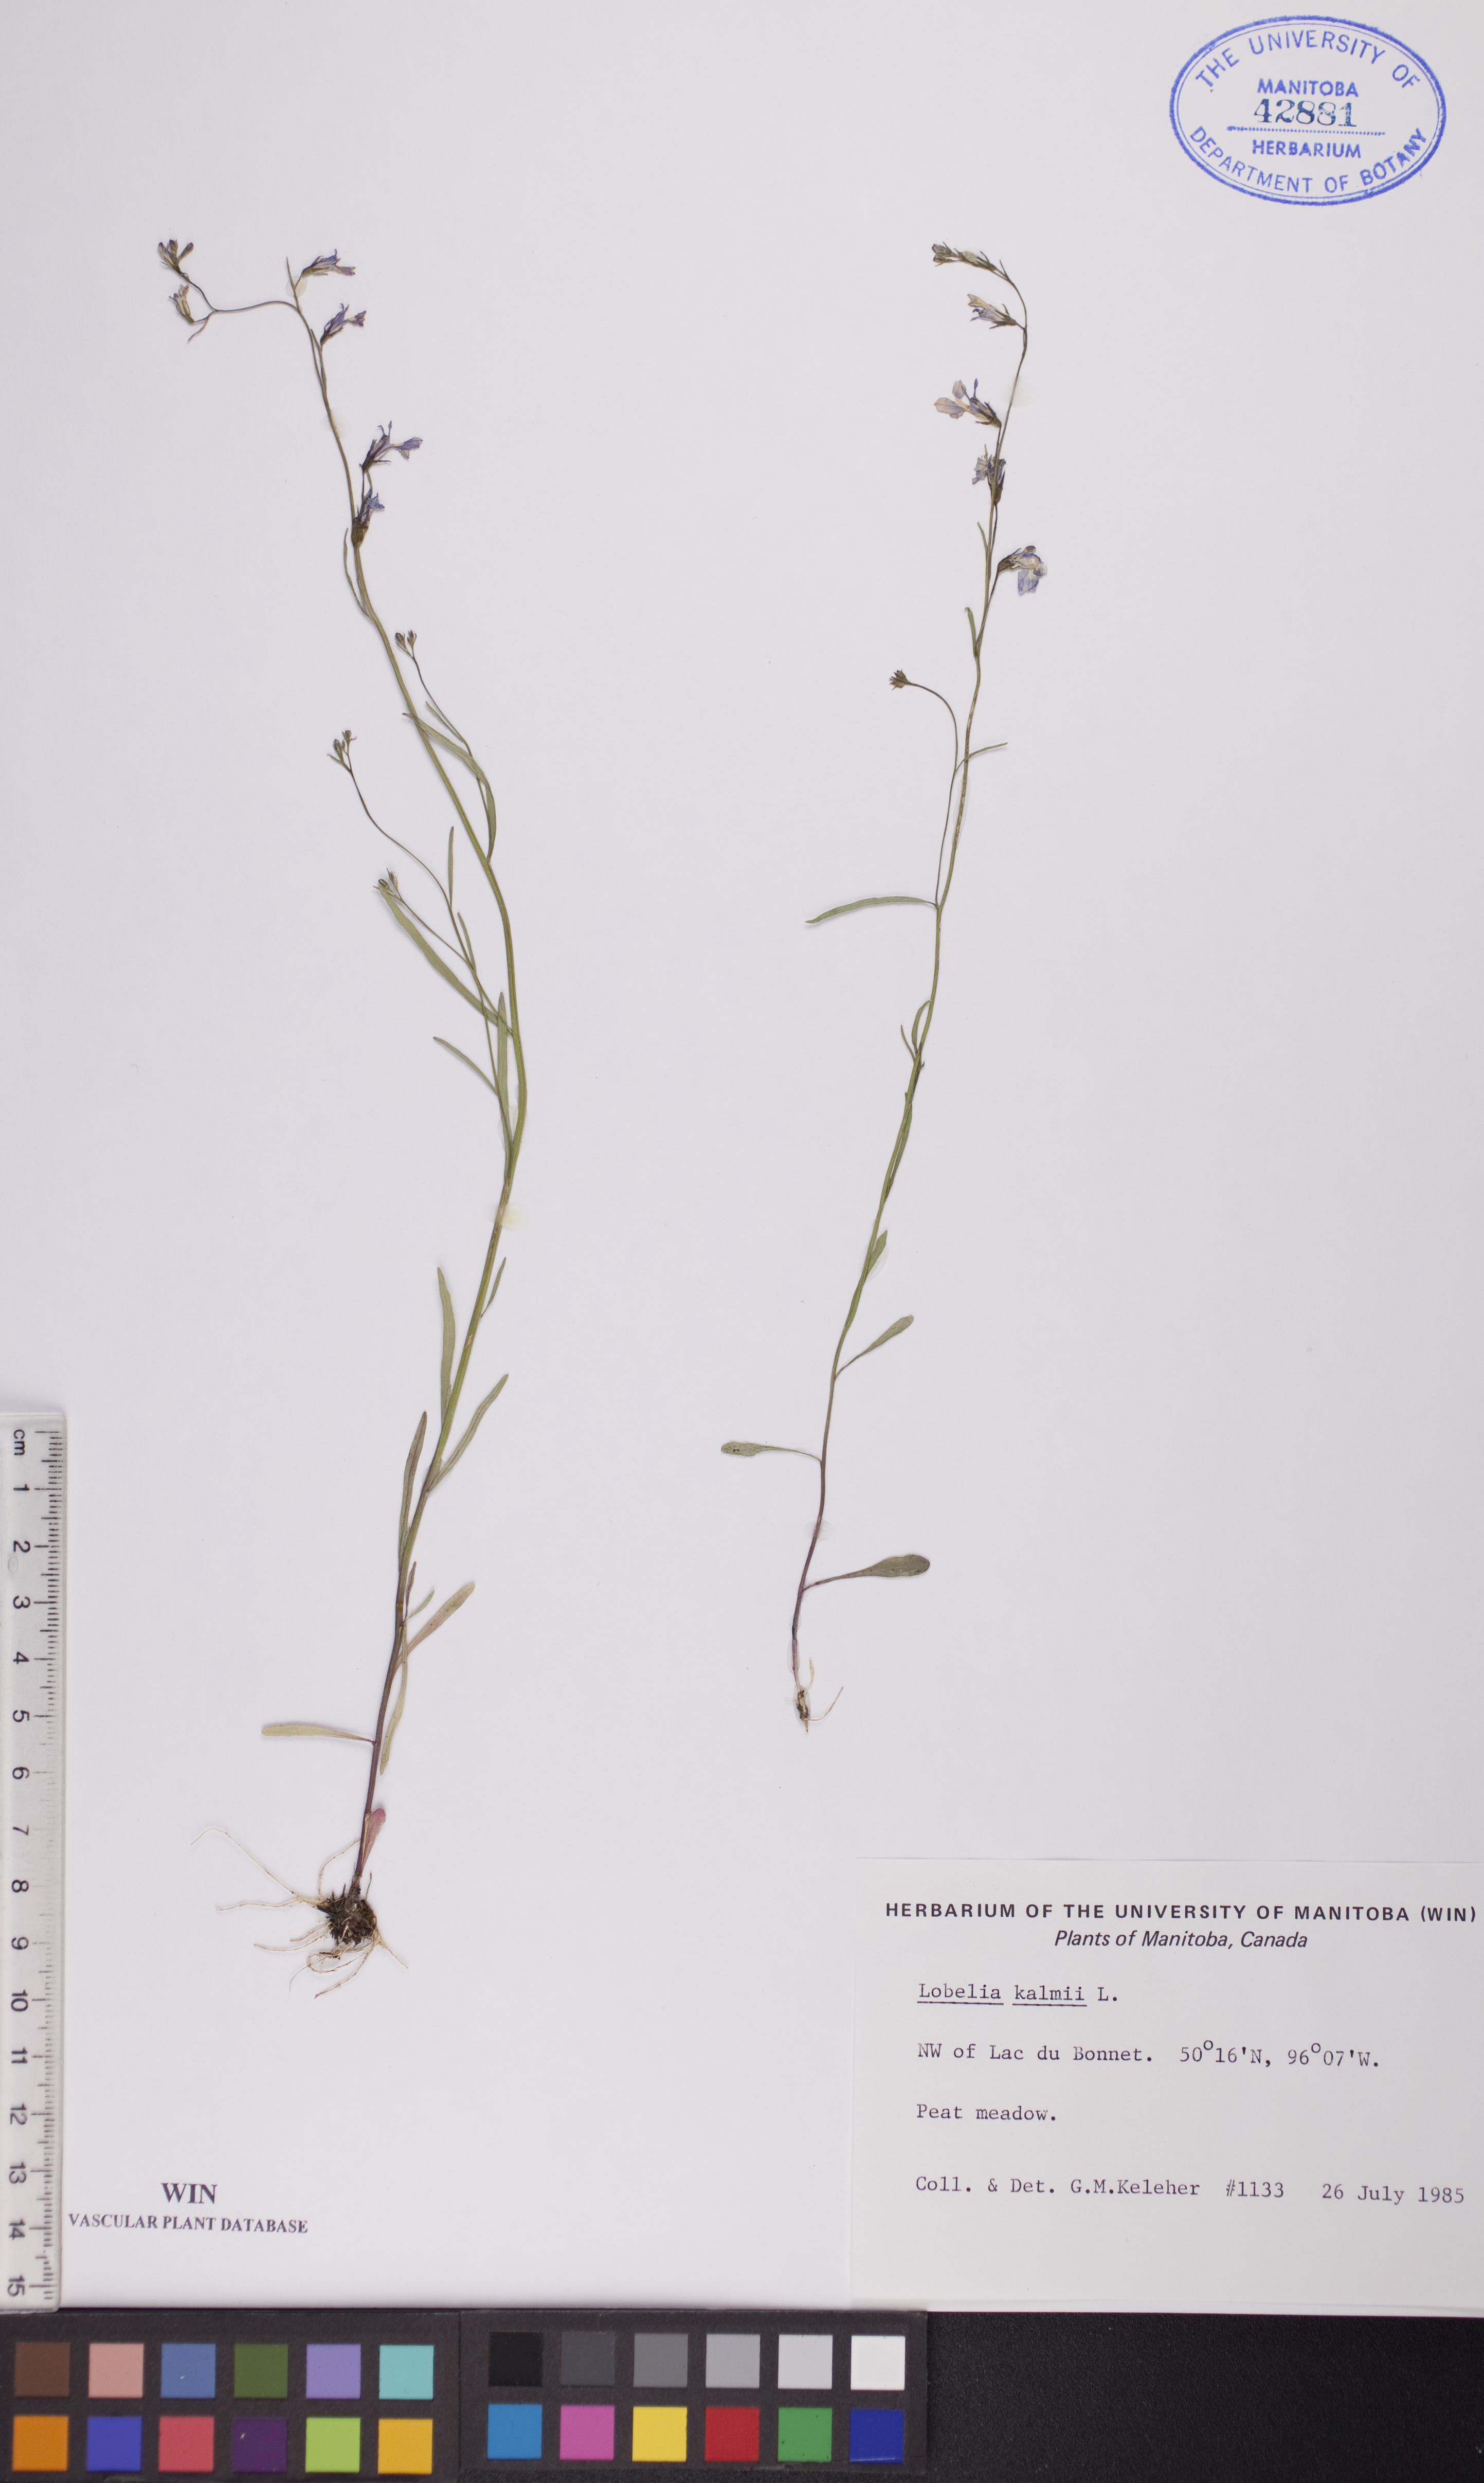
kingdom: Plantae
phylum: Tracheophyta
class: Magnoliopsida
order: Asterales
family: Campanulaceae
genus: Lobelia
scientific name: Lobelia kalmii
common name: Kalm's lobelia
